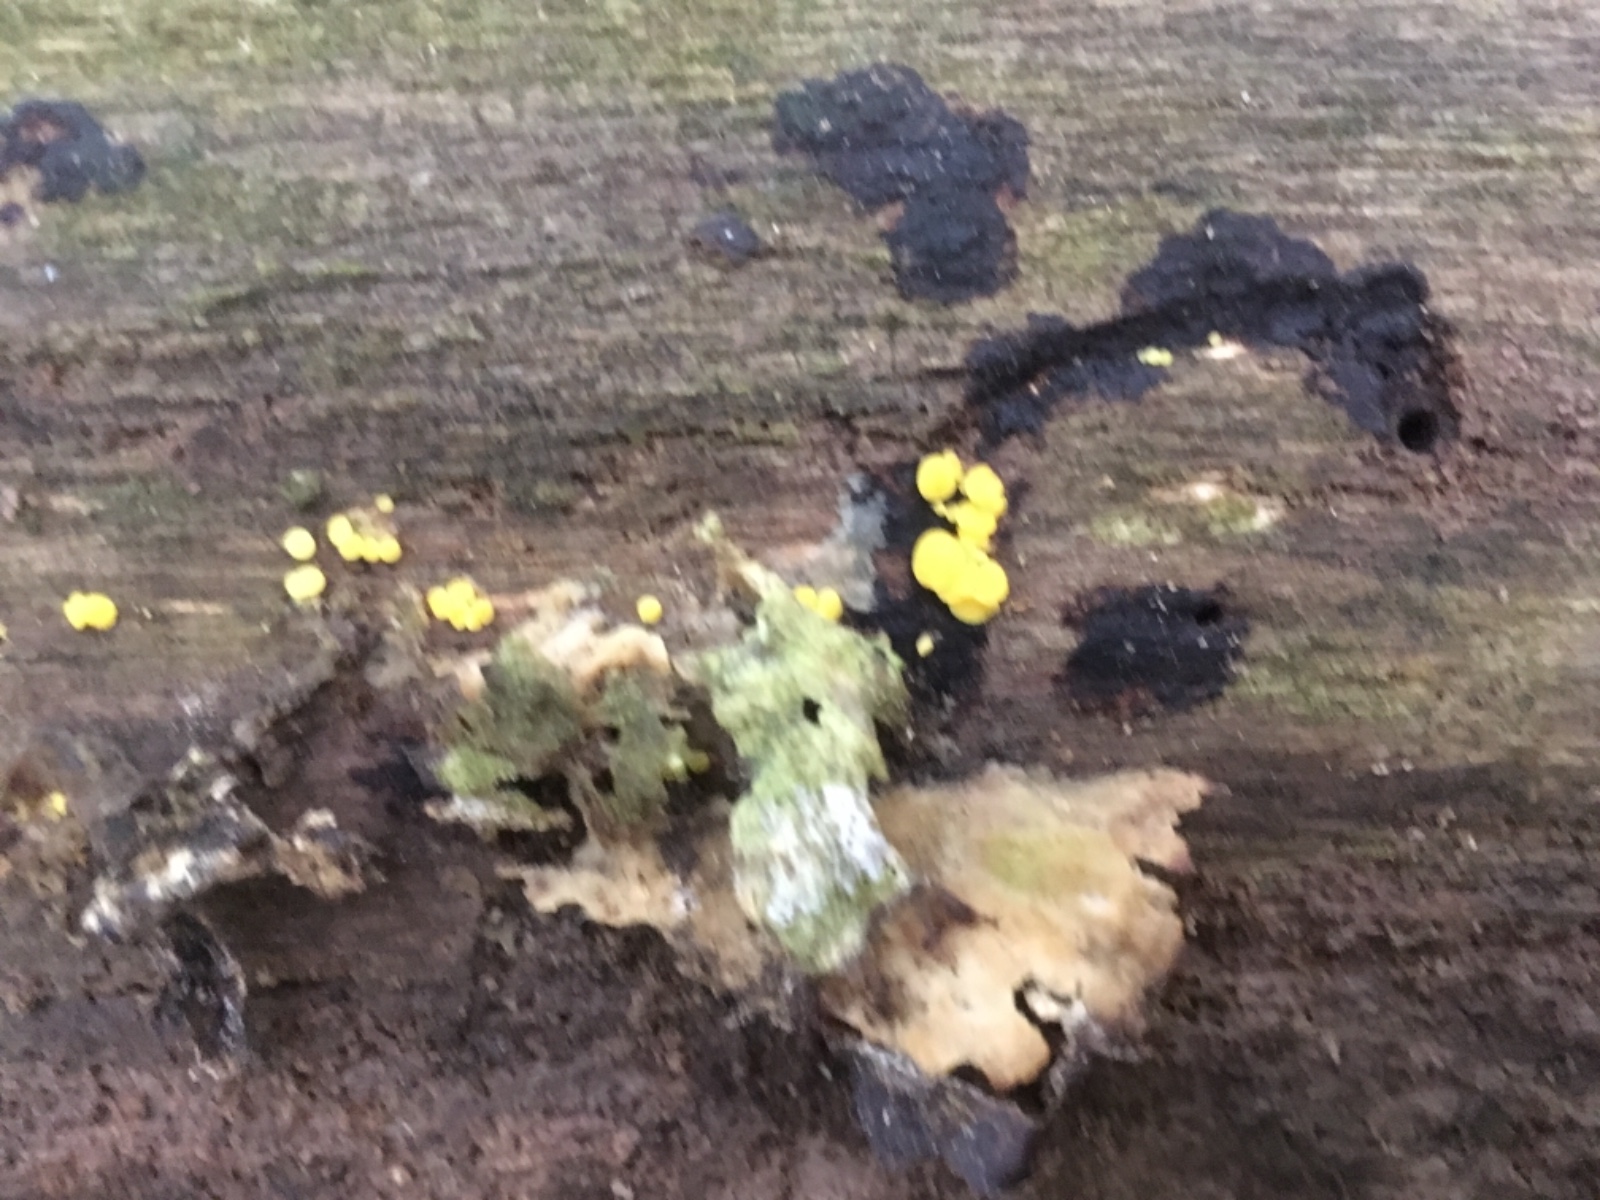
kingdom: Fungi
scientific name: Fungi
